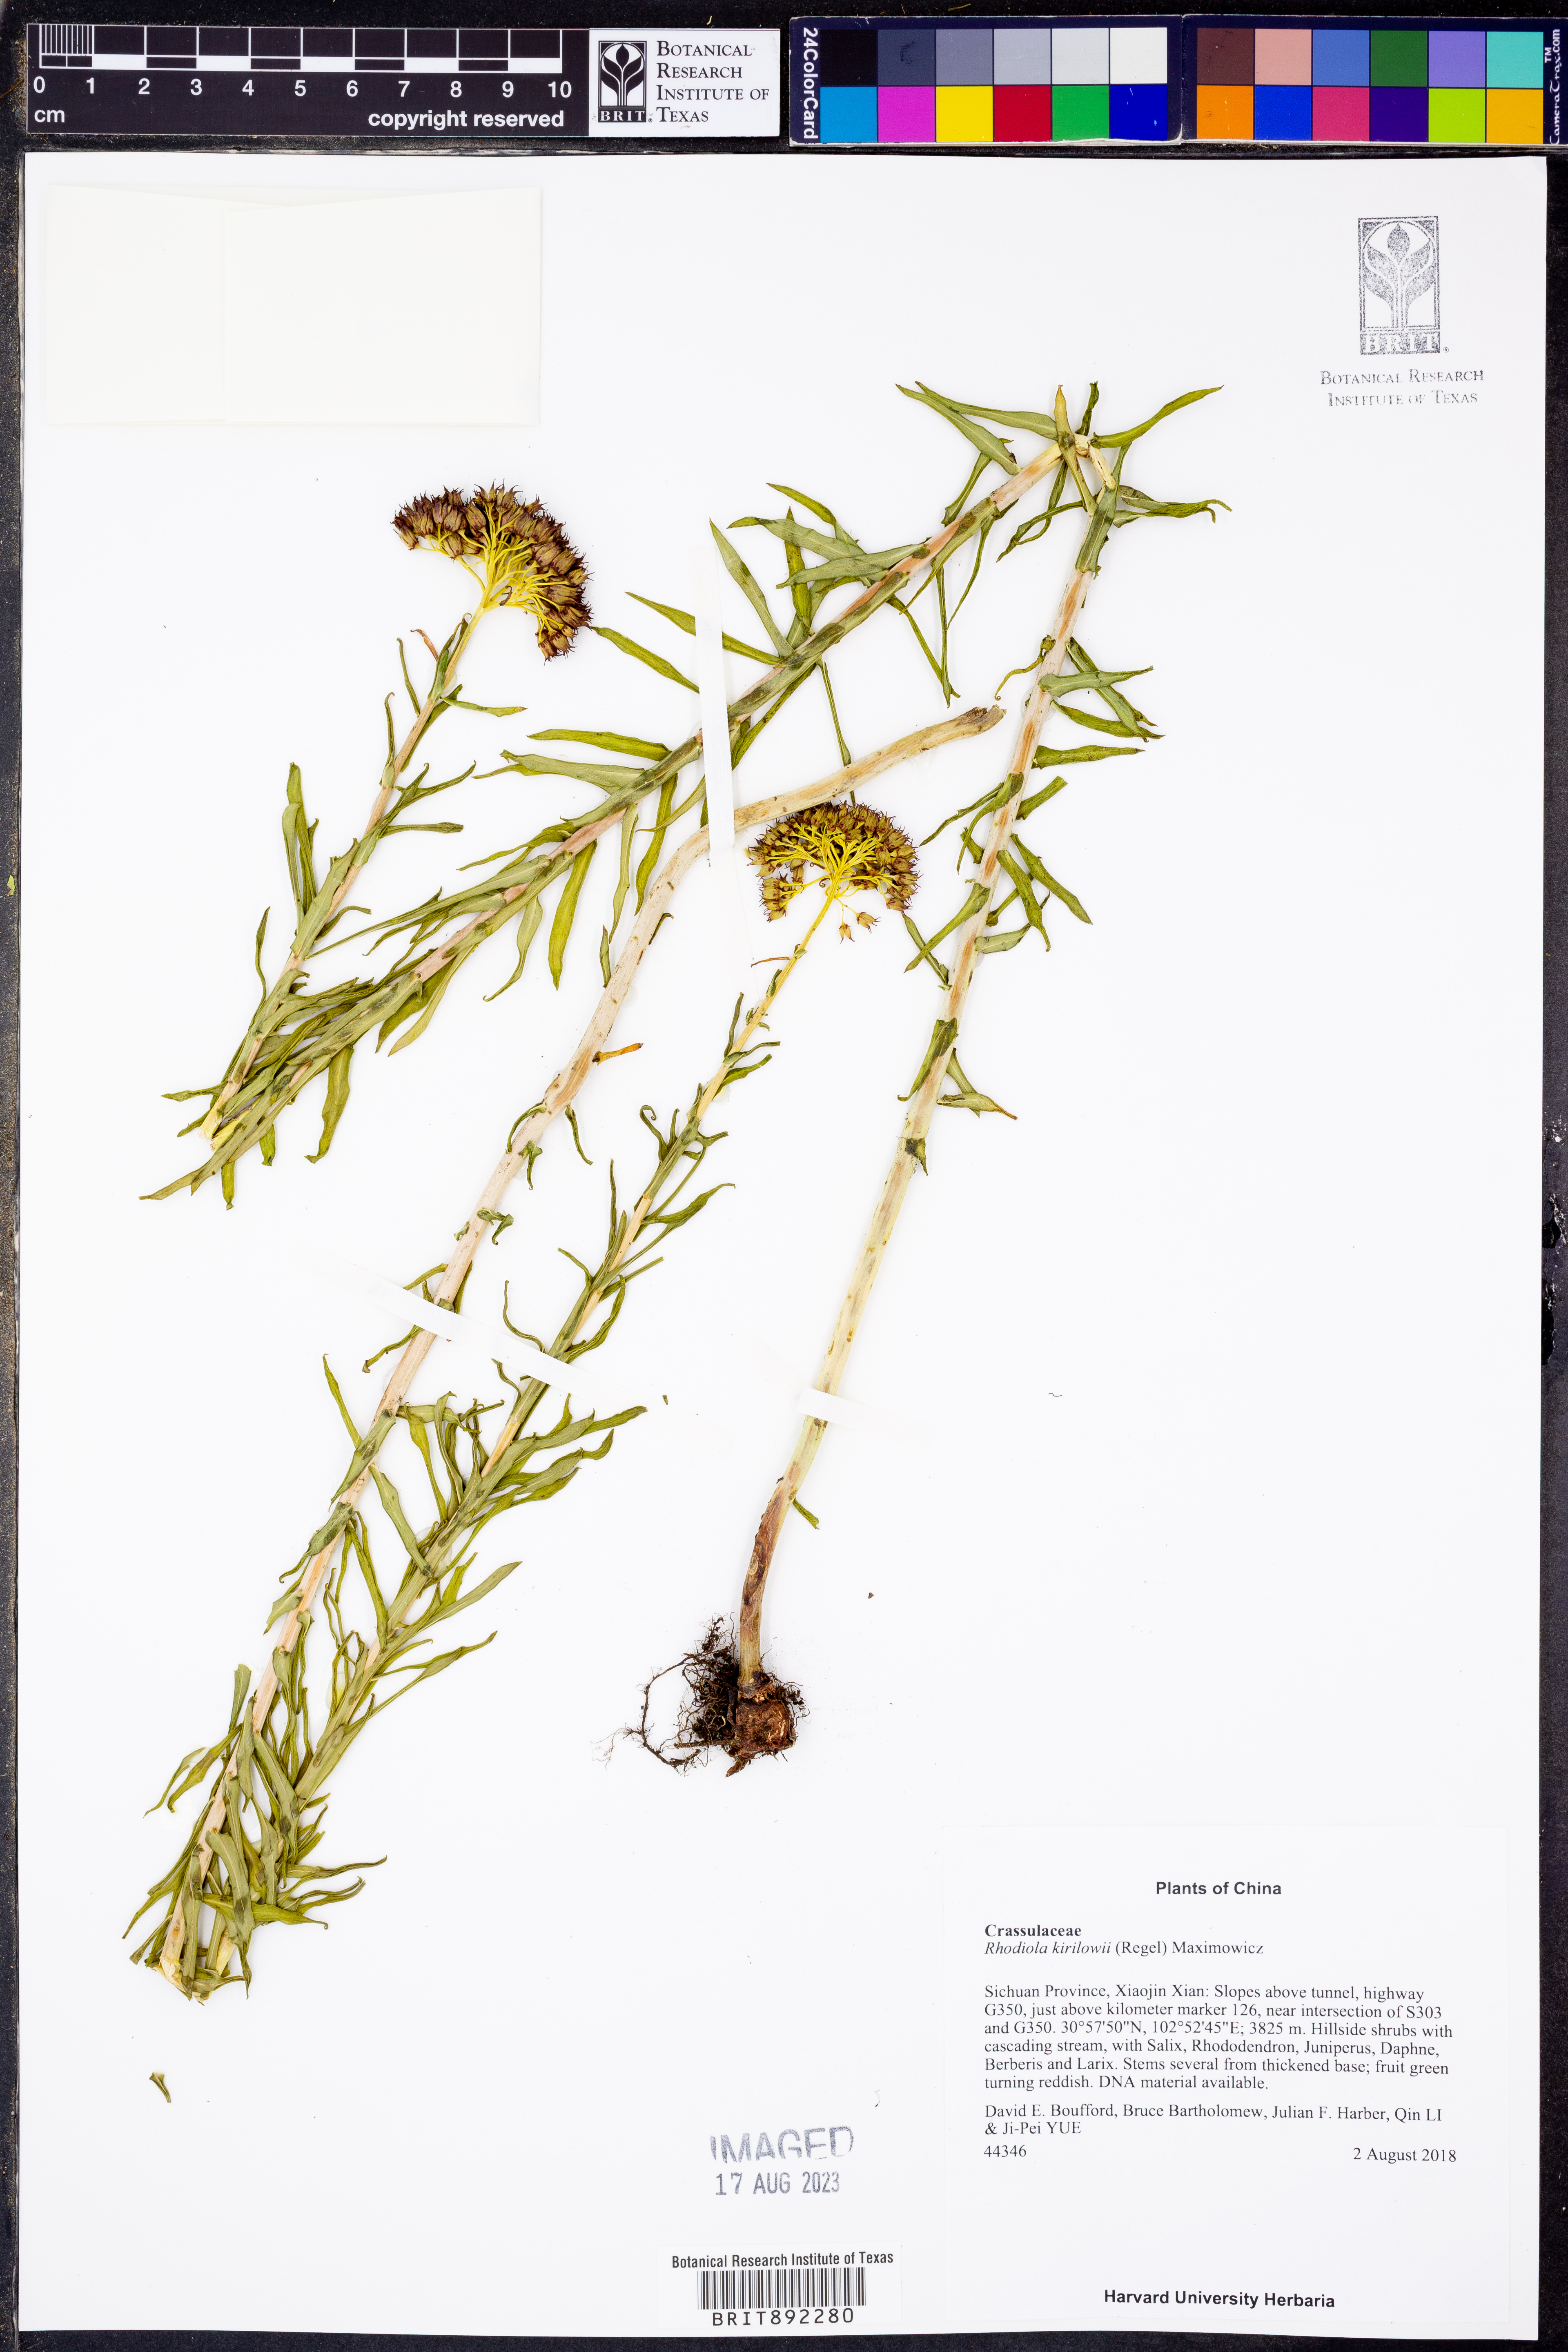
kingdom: Plantae
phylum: Tracheophyta
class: Magnoliopsida
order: Saxifragales
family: Crassulaceae
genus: Rhodiola
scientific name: Rhodiola kirilowii
